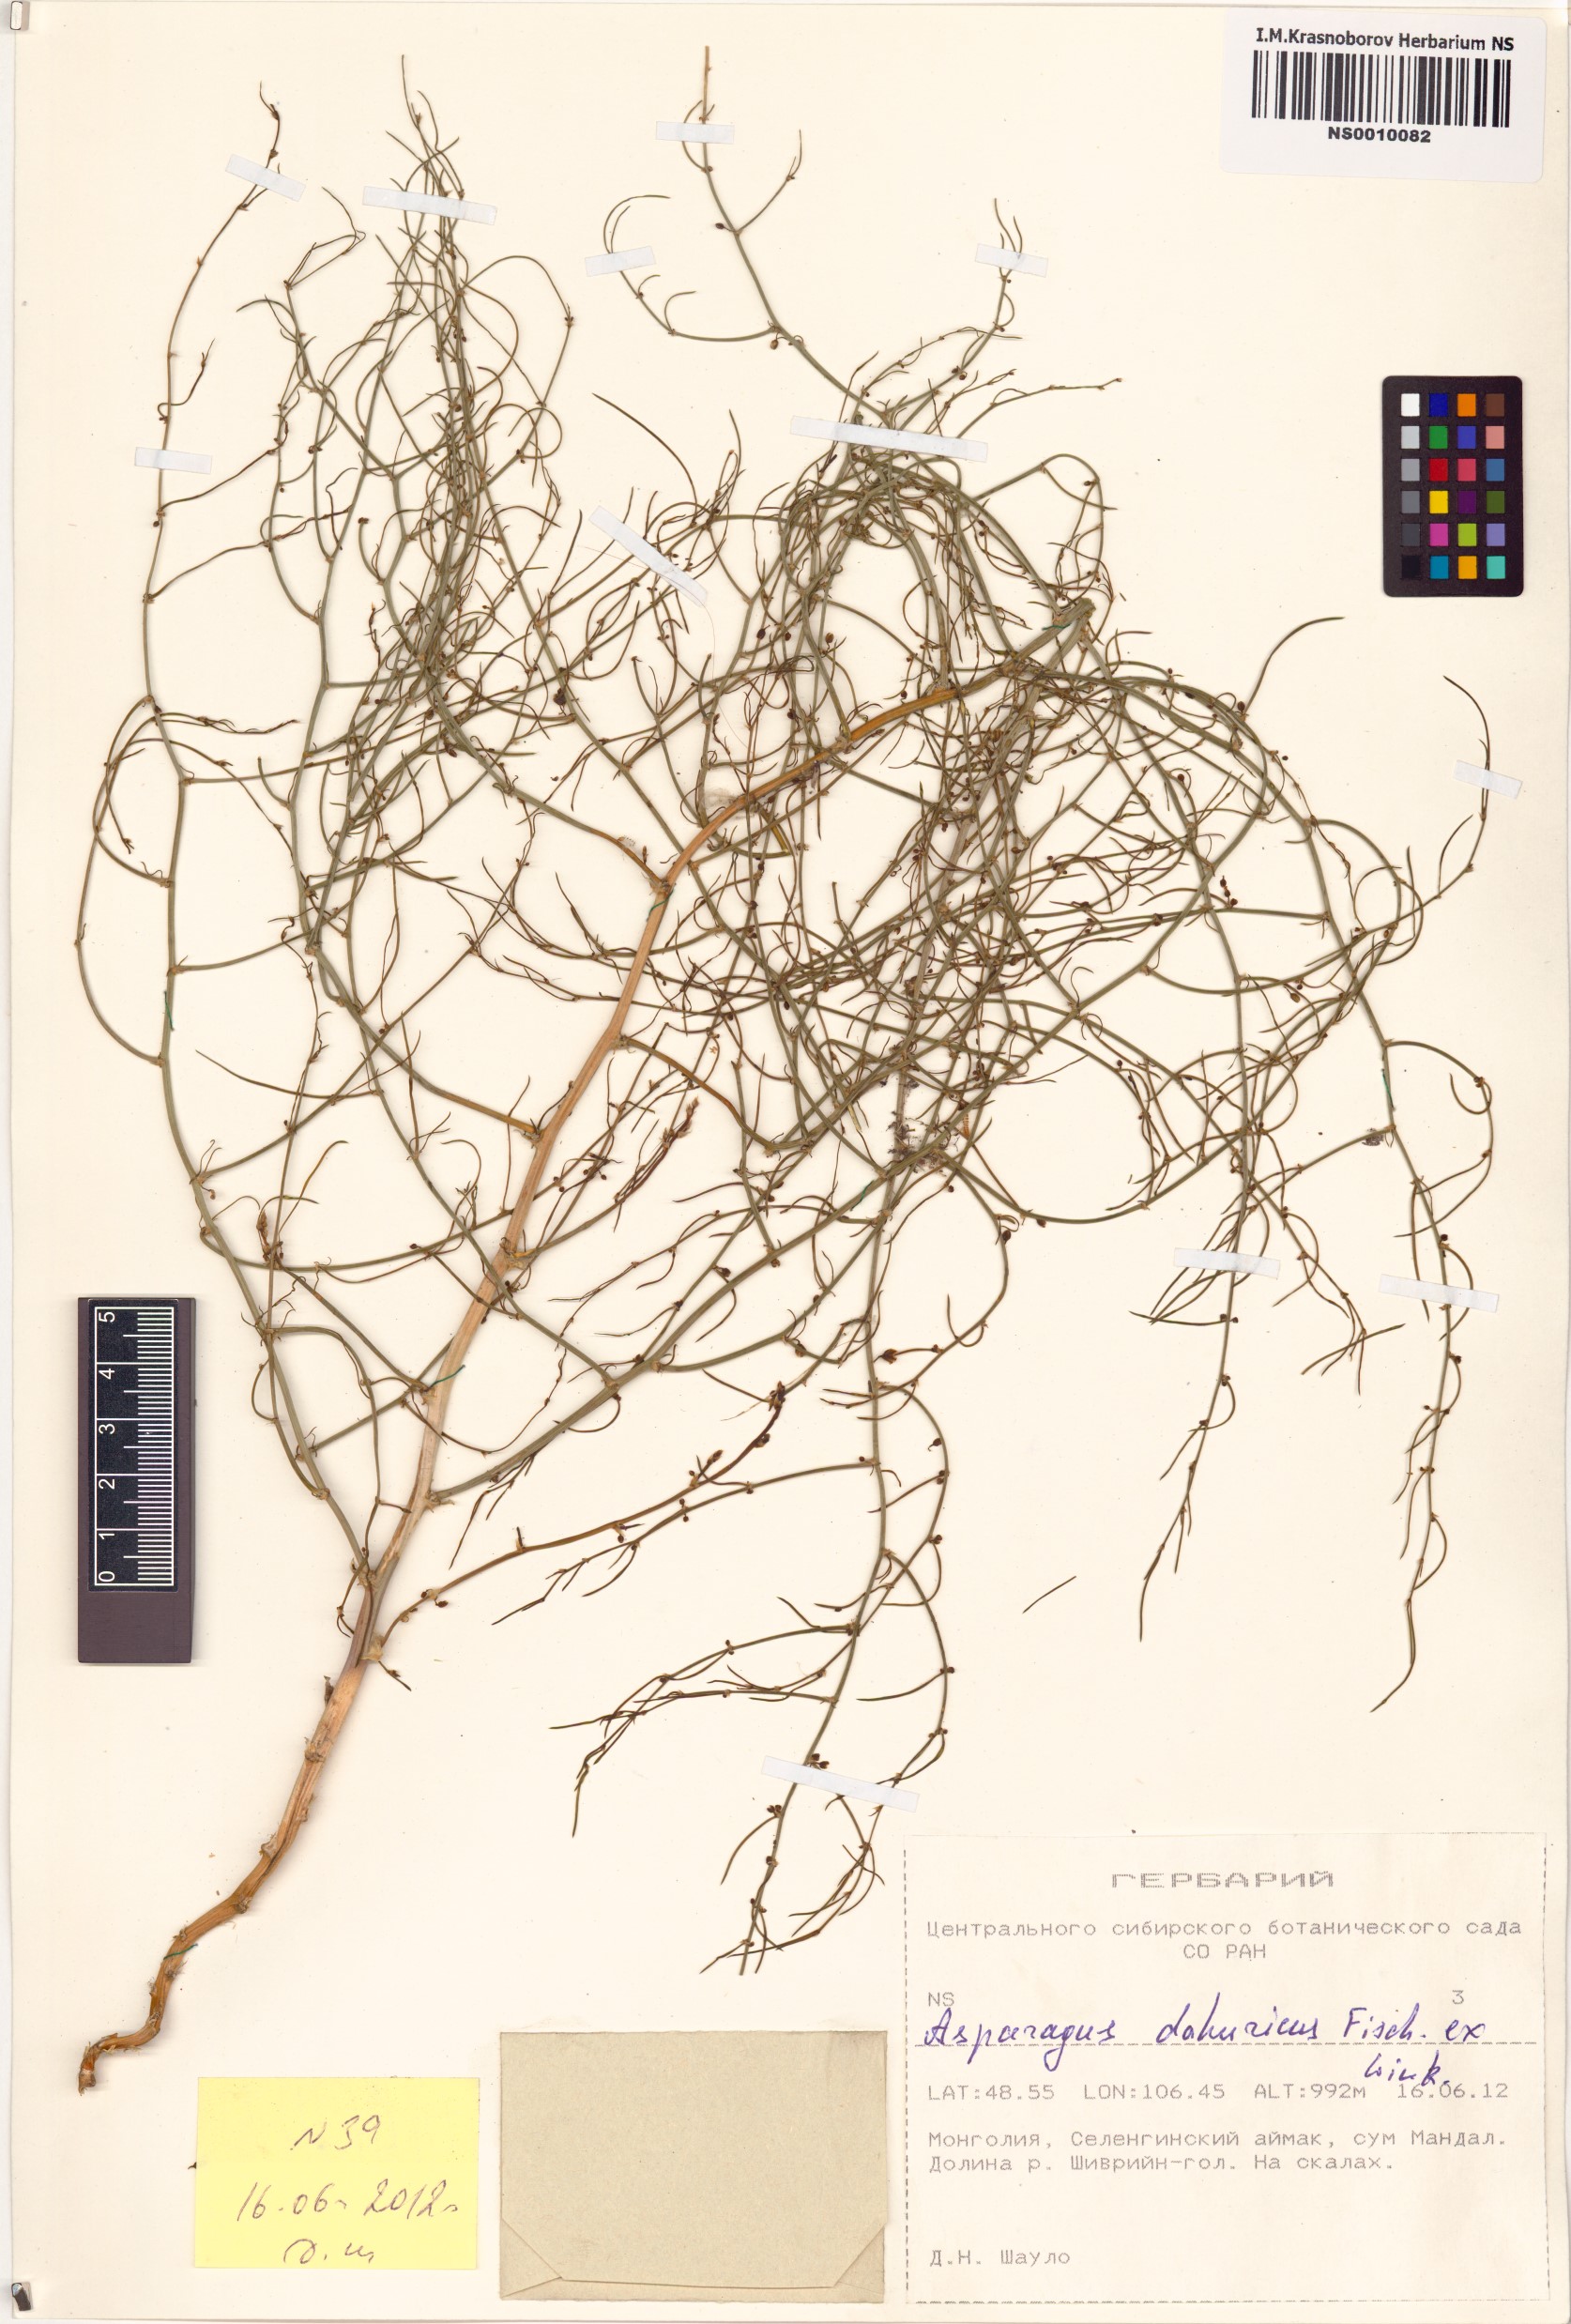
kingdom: Plantae
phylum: Tracheophyta
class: Liliopsida
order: Asparagales
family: Asparagaceae
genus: Asparagus
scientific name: Asparagus dauricus
